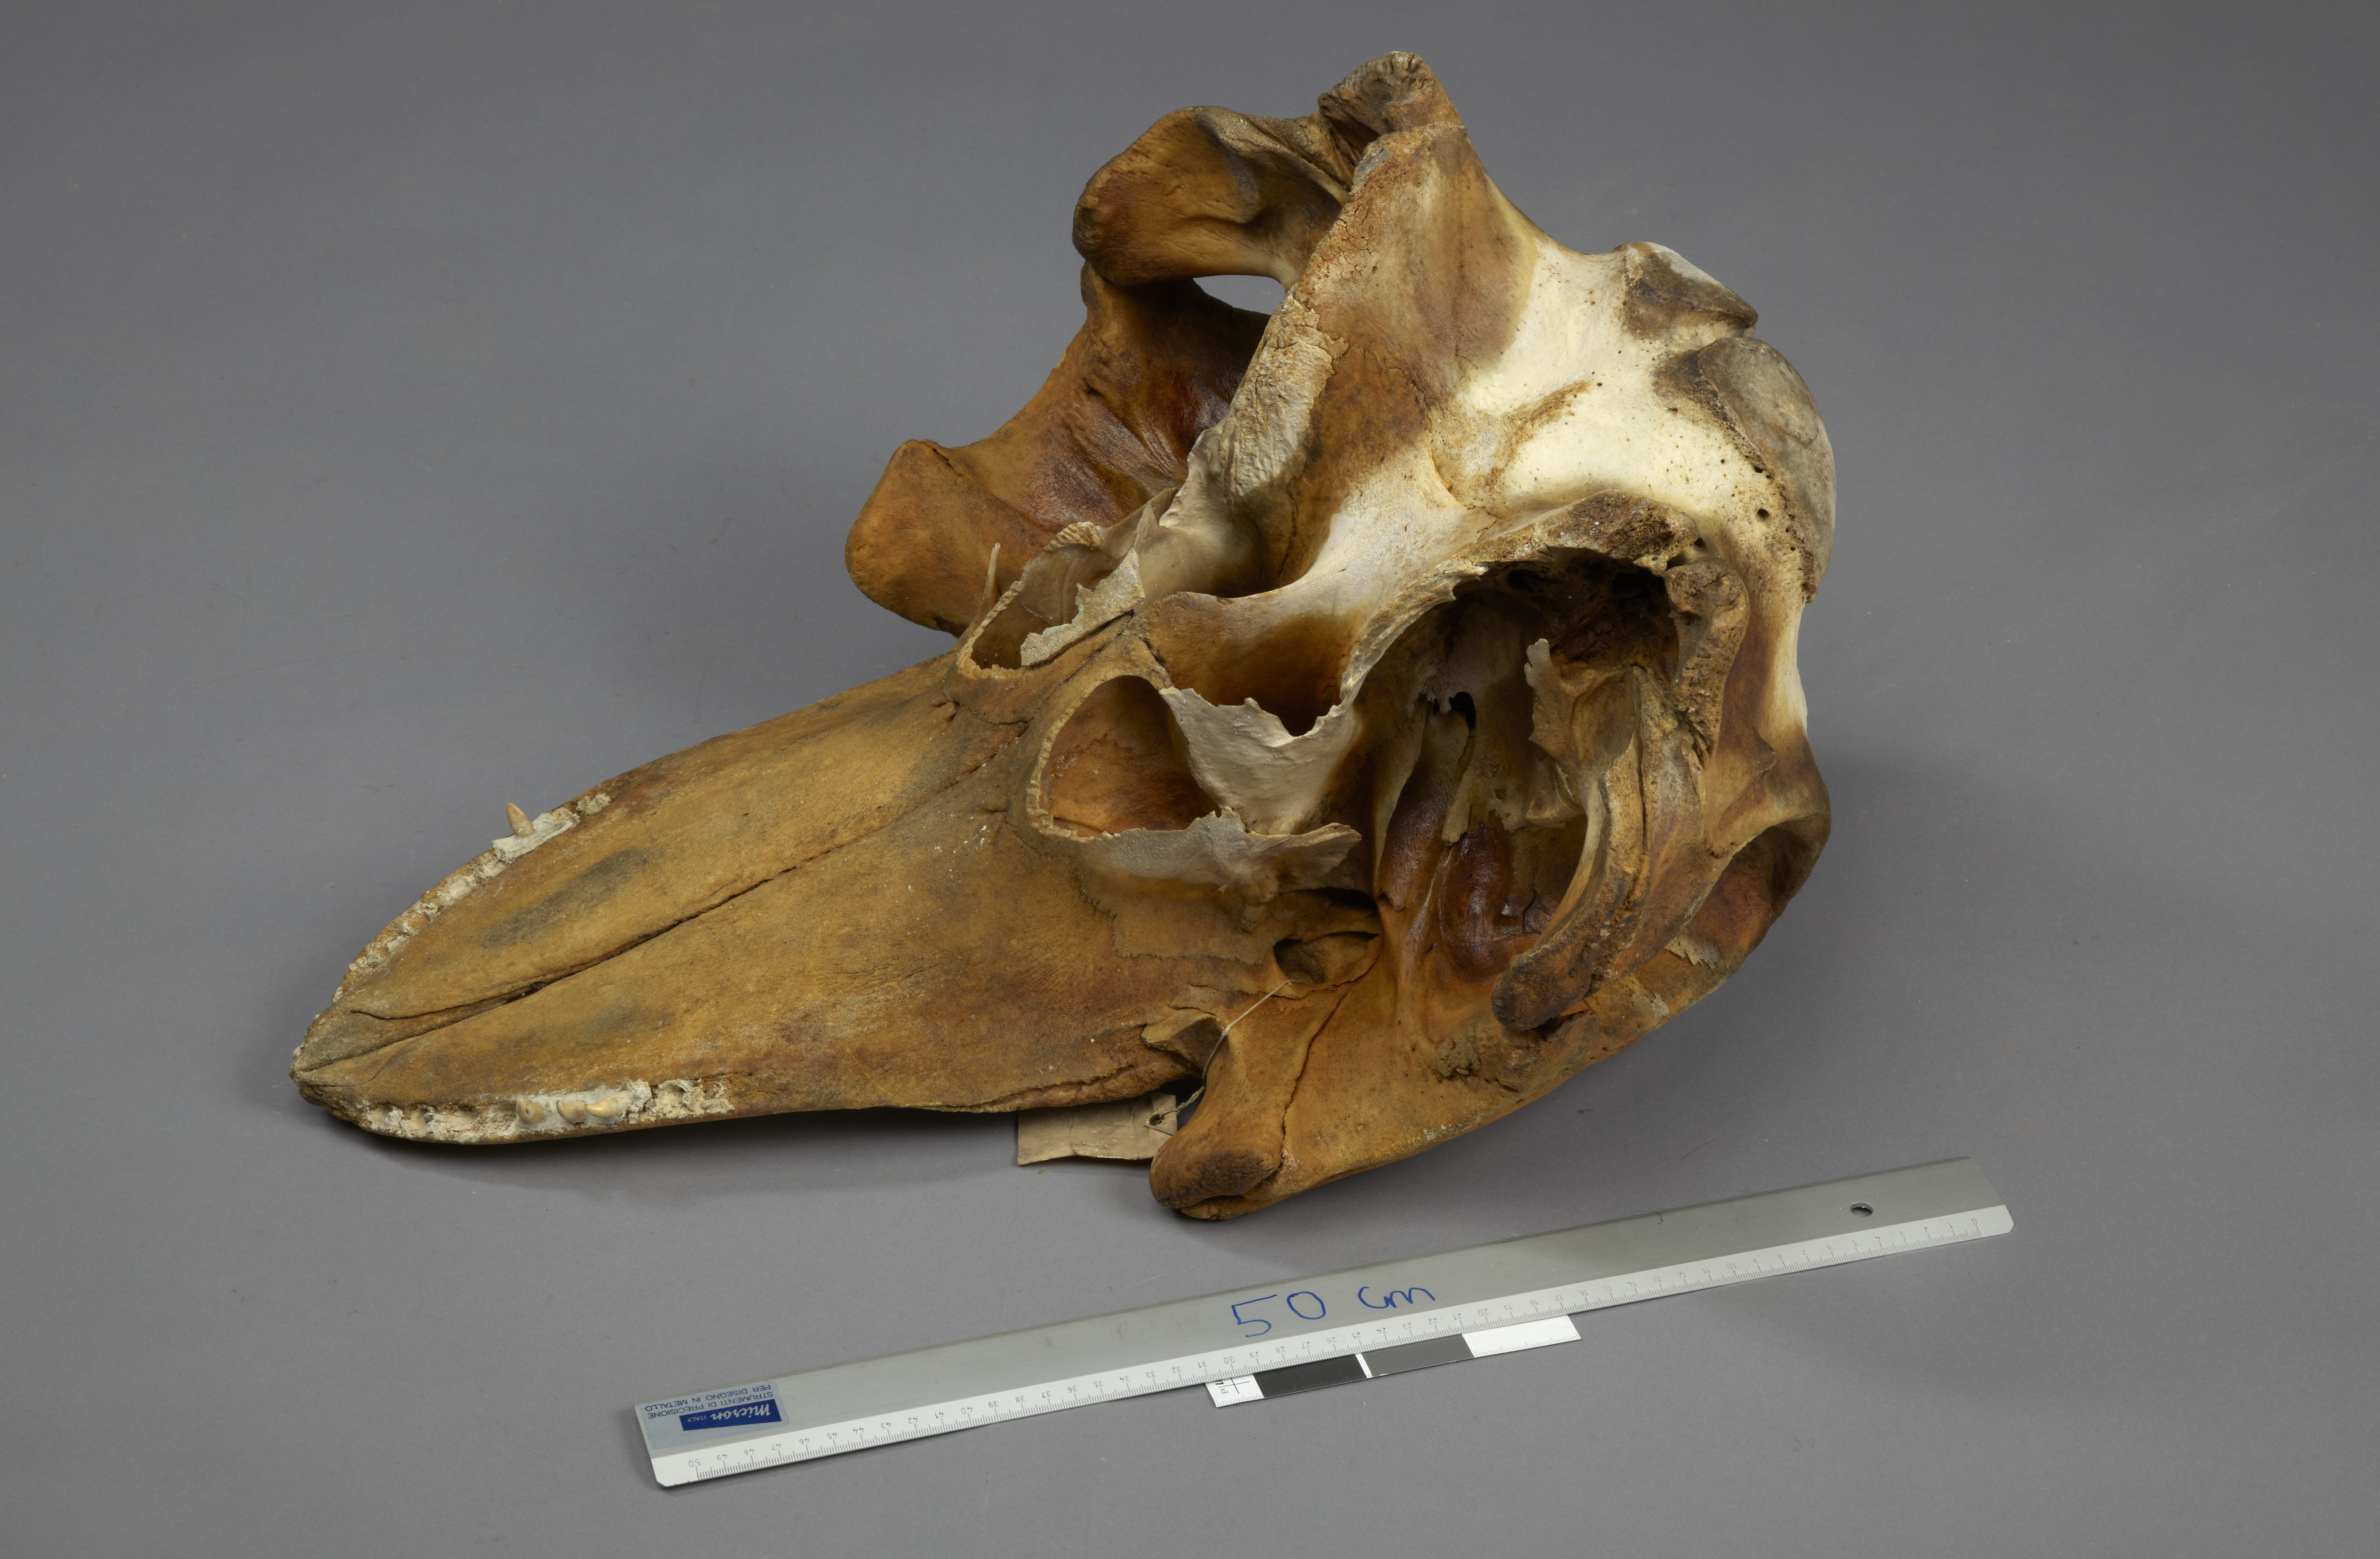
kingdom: Animalia
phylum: Chordata
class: Mammalia
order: Cetacea
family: Delphinidae
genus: Globicephala
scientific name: Globicephala melas
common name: Long-finned pilot whale
